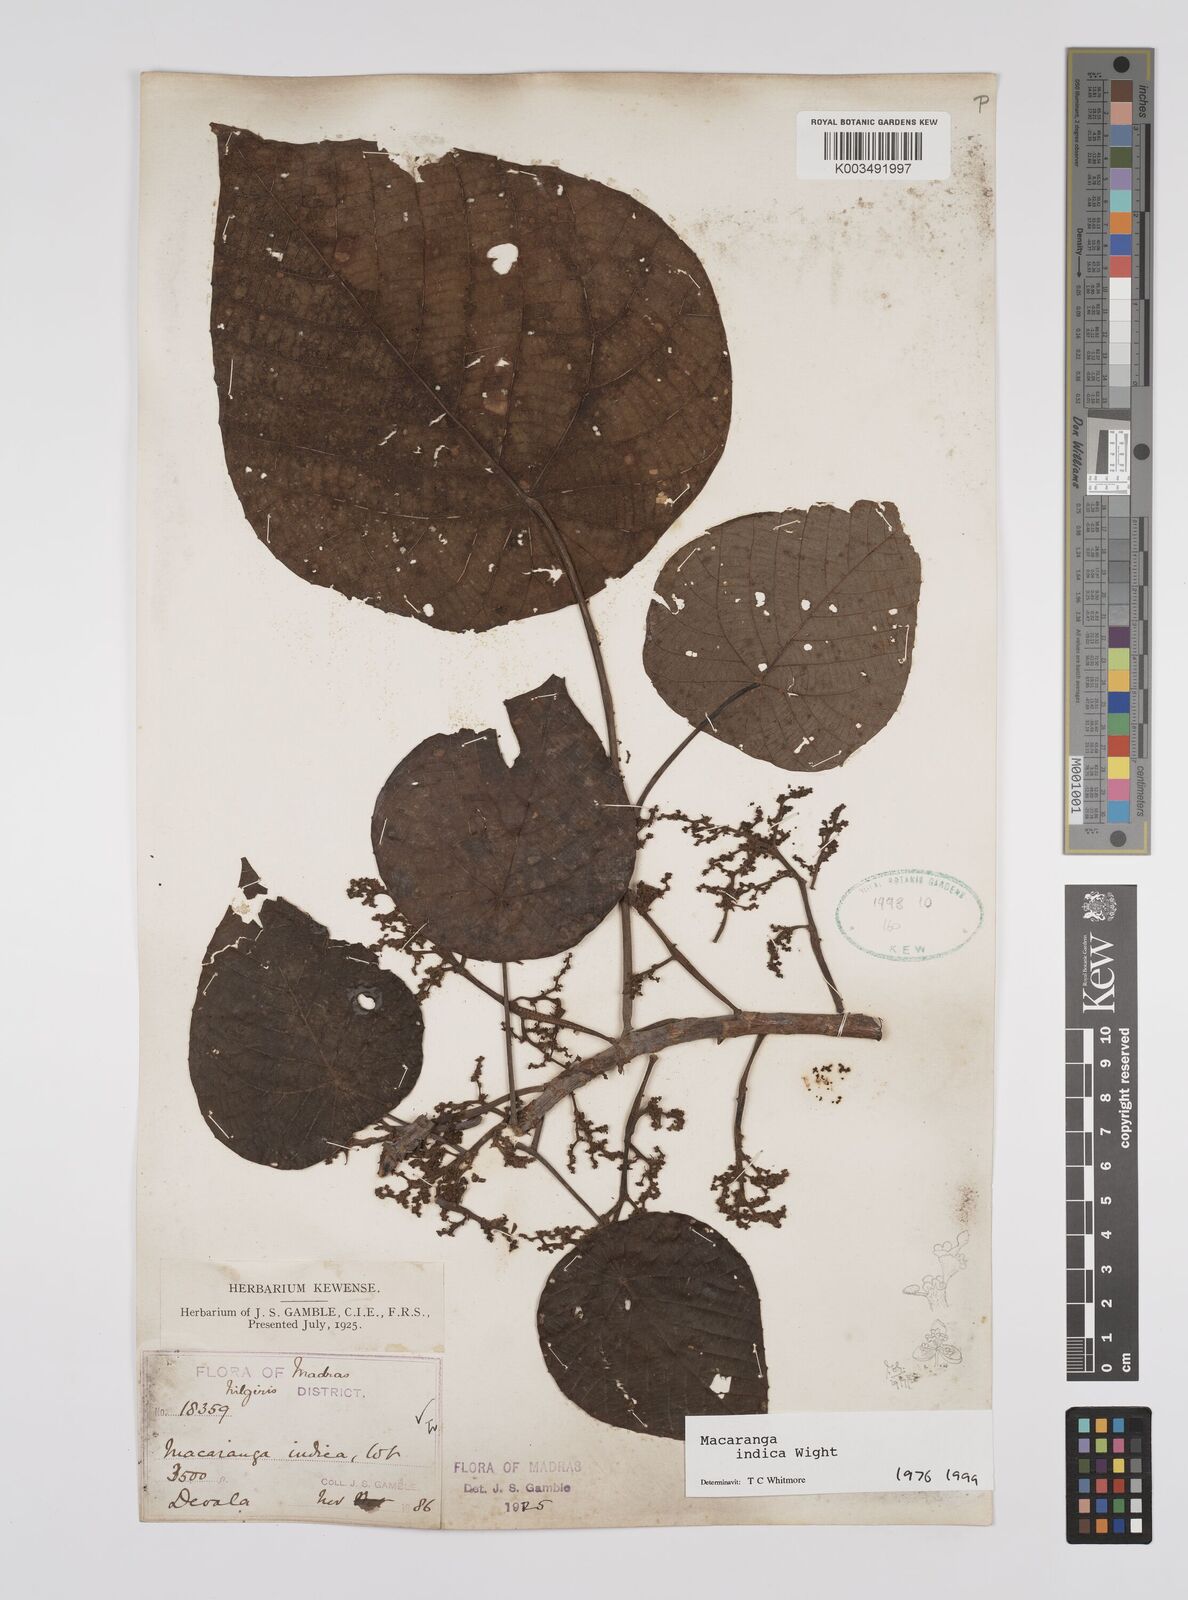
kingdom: Plantae
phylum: Tracheophyta
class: Magnoliopsida
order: Malpighiales
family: Euphorbiaceae
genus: Macaranga
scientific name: Macaranga indica
